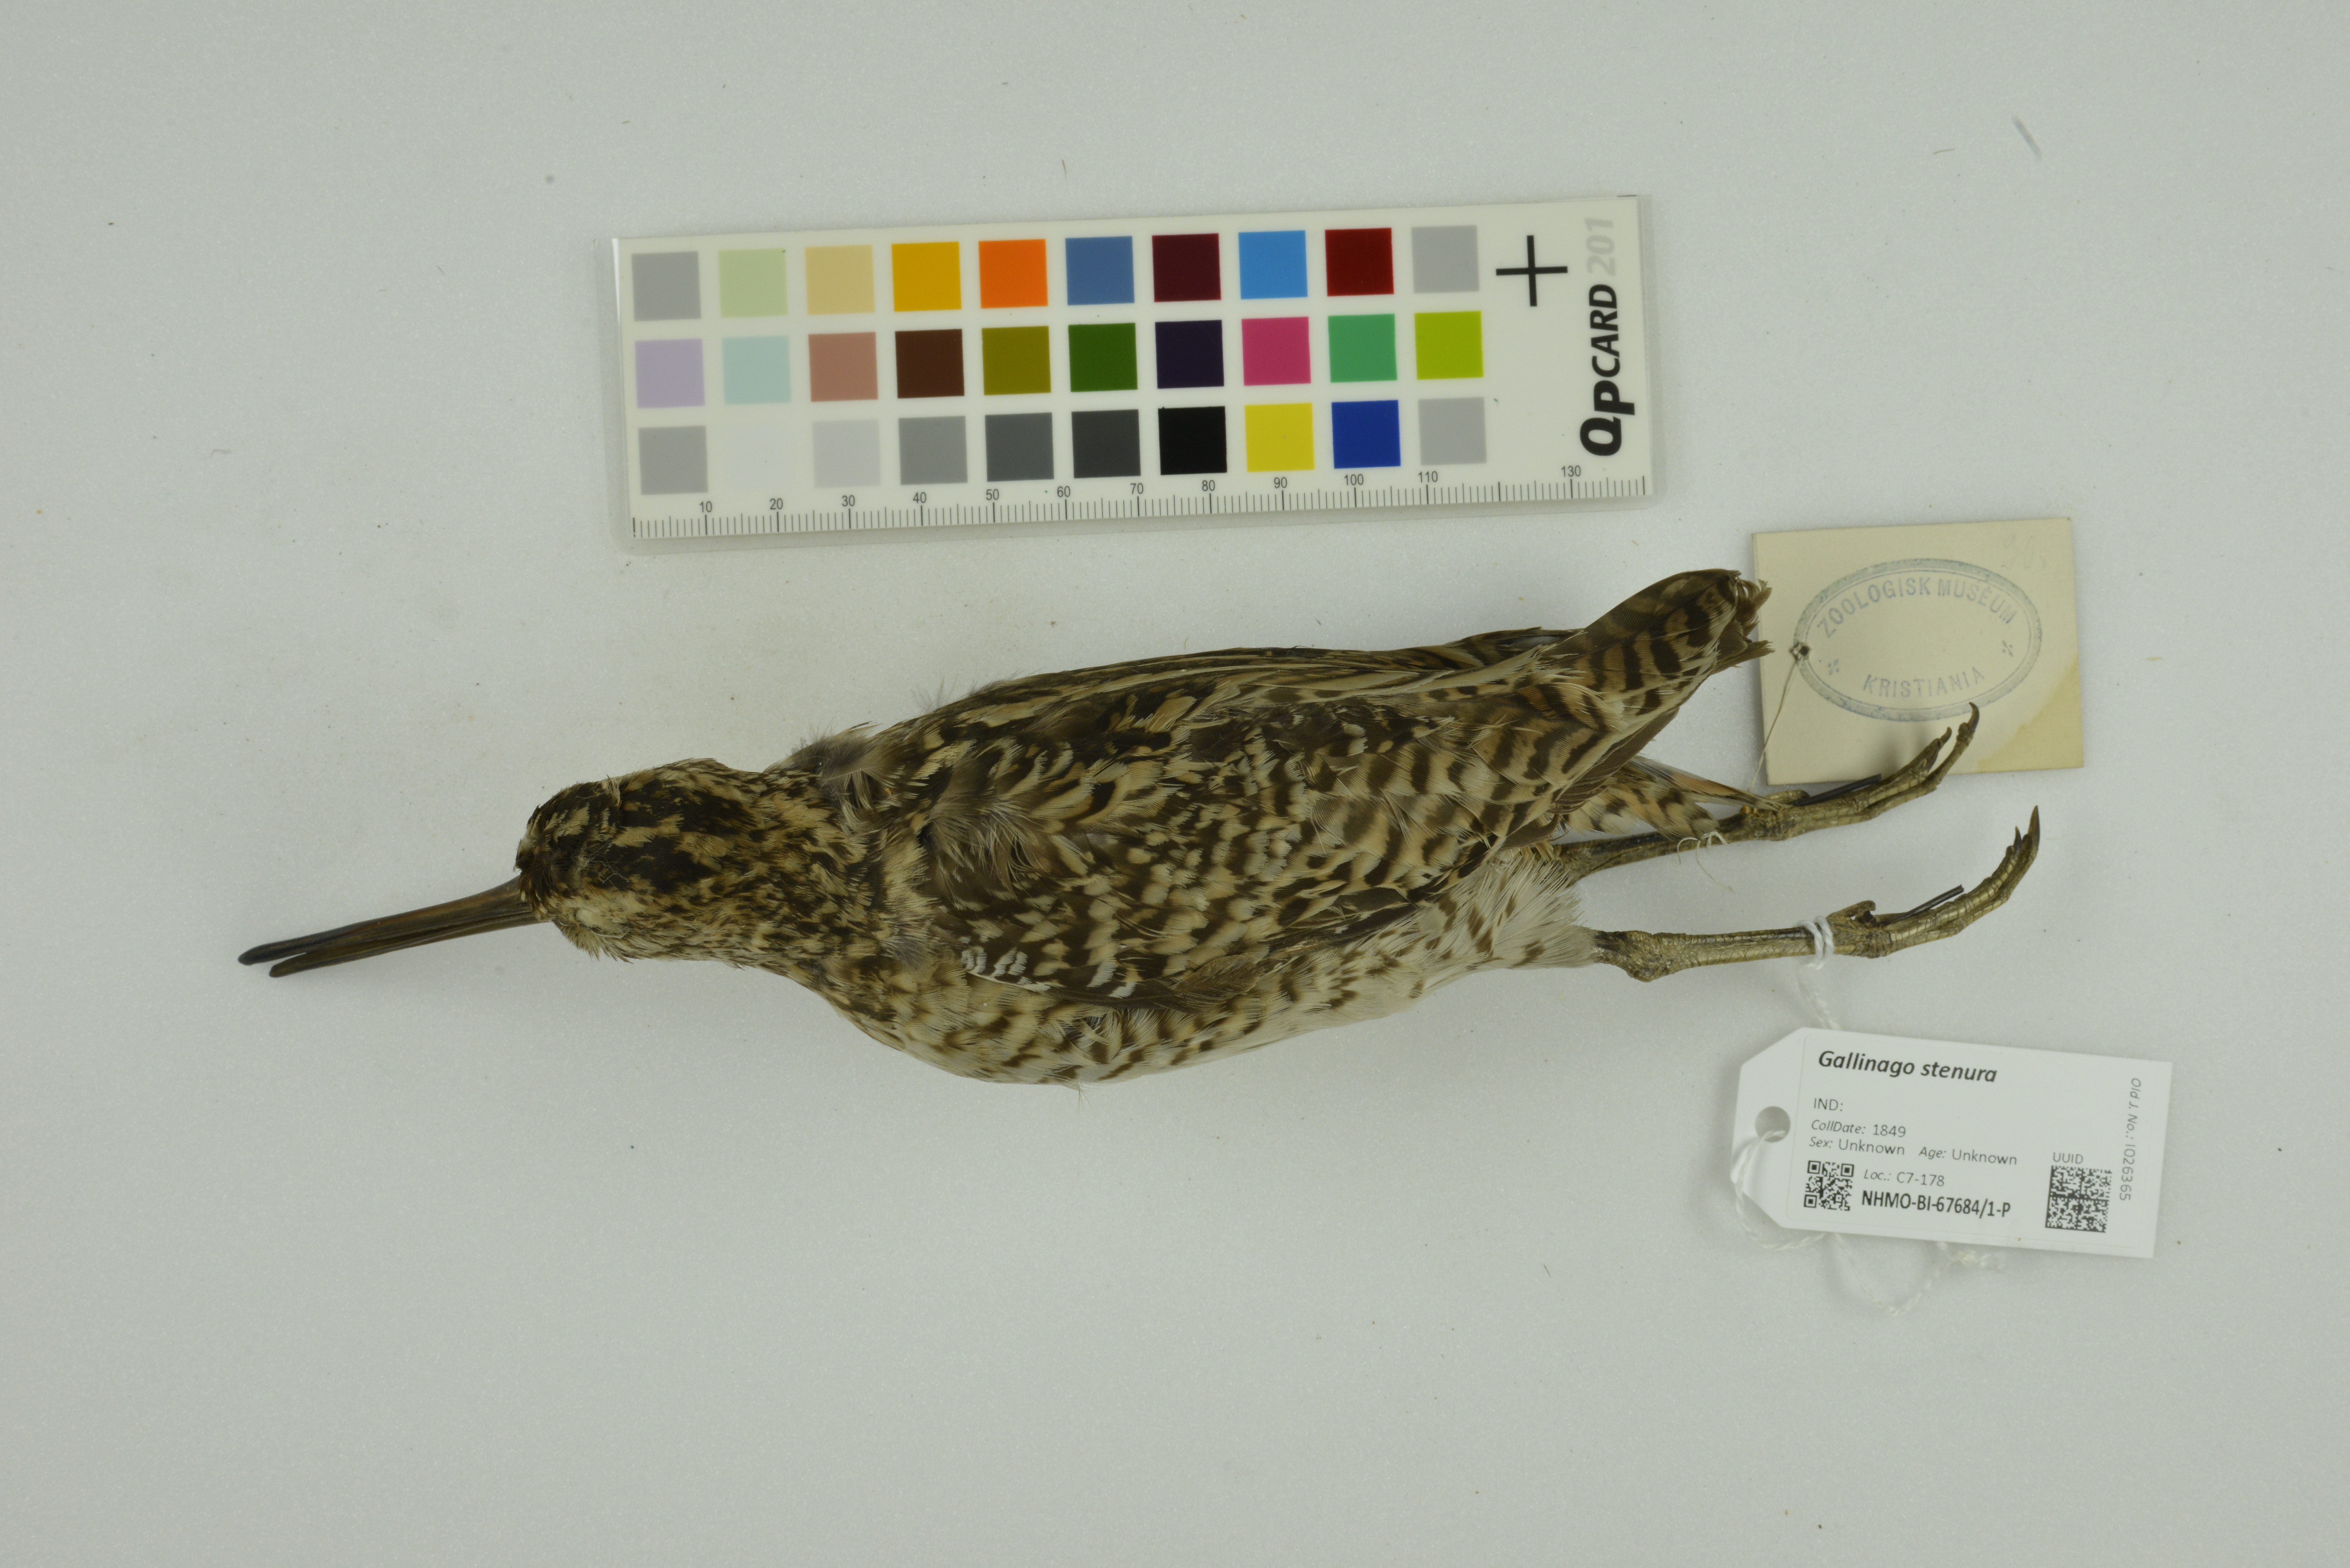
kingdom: Animalia
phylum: Chordata
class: Aves
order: Charadriiformes
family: Scolopacidae
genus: Gallinago
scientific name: Gallinago stenura
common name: Pin-tailed snipe
